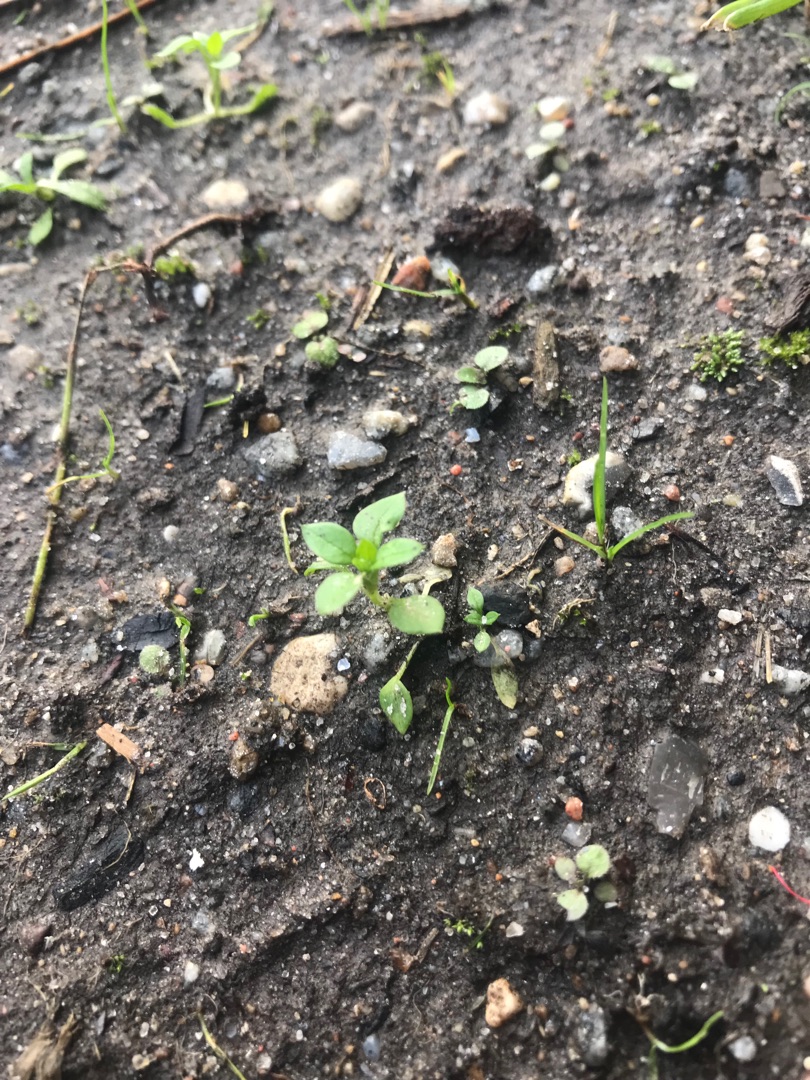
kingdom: Plantae
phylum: Tracheophyta
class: Magnoliopsida
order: Caryophyllales
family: Caryophyllaceae
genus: Stellaria
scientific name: Stellaria media
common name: Almindelig fuglegræs
